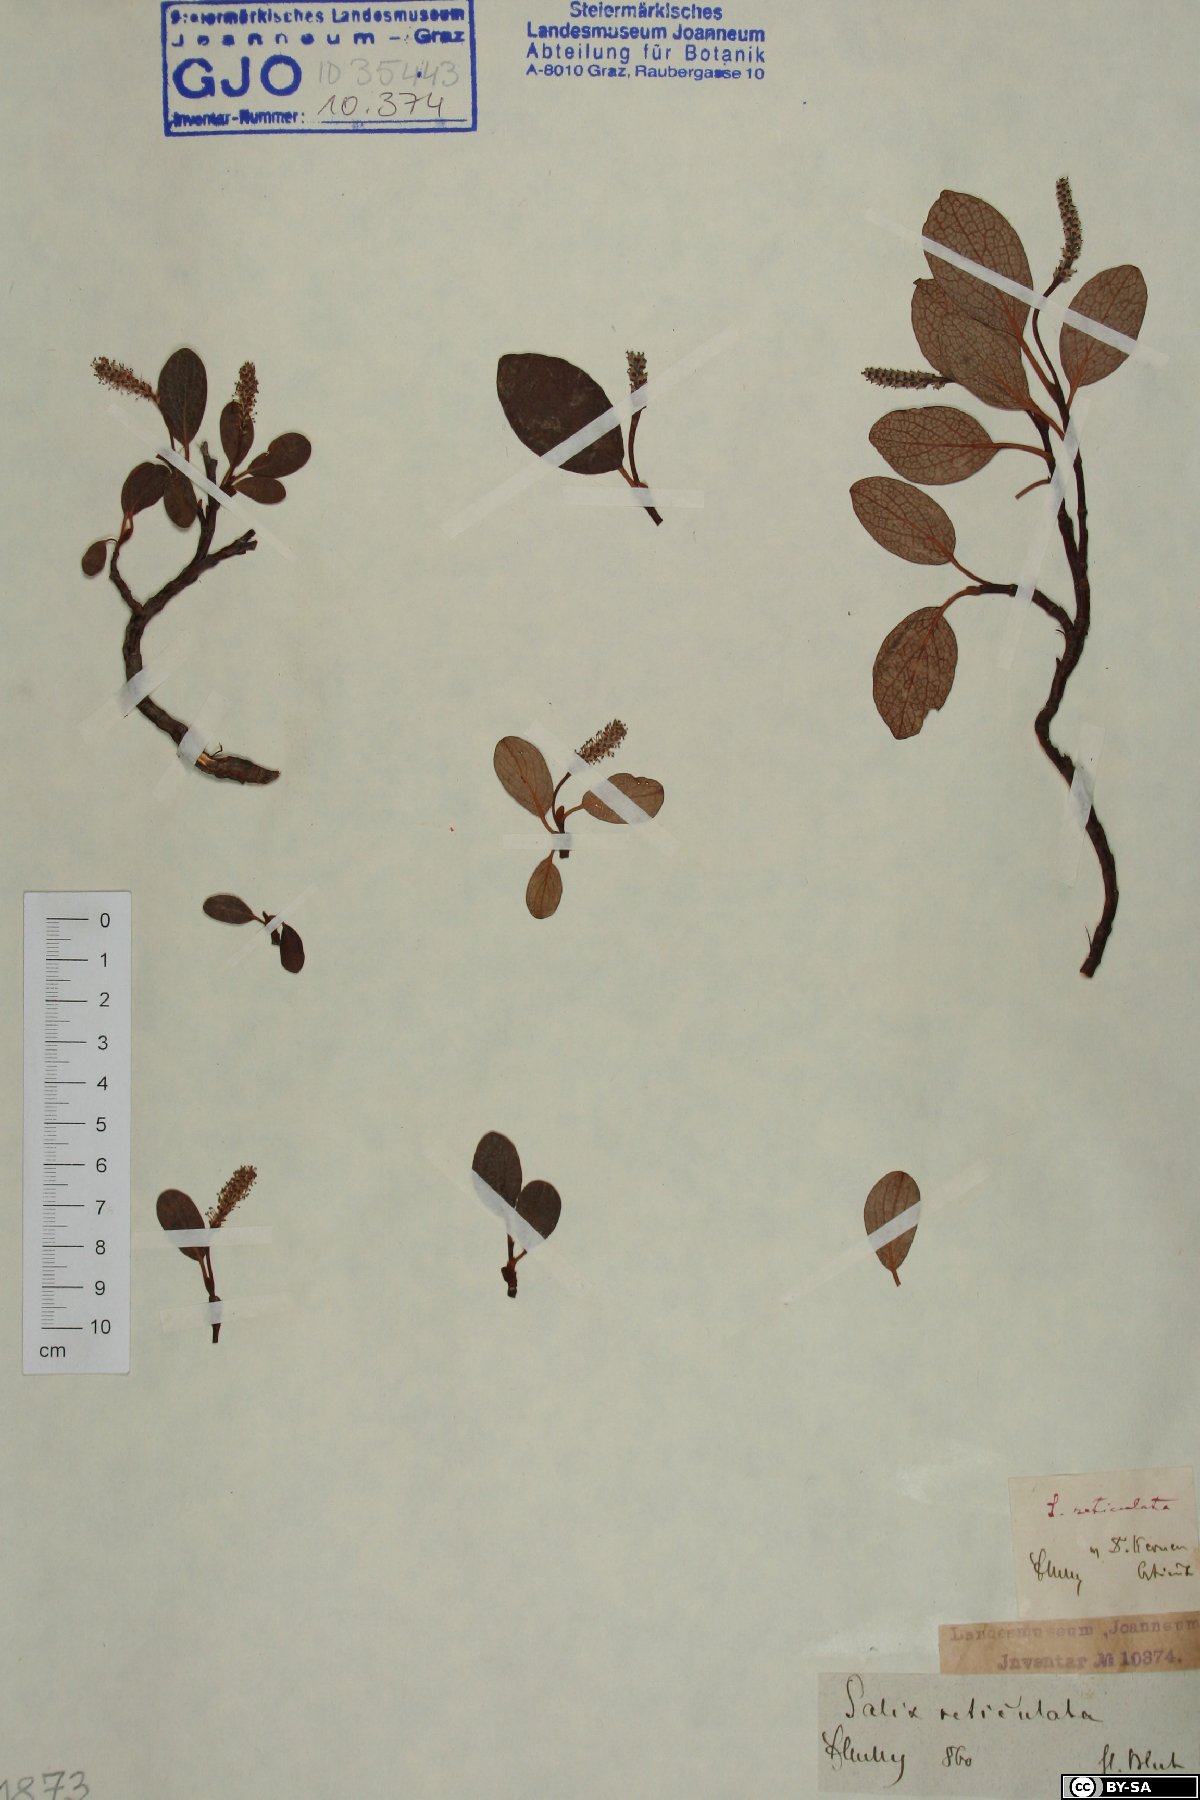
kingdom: Plantae
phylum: Tracheophyta
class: Magnoliopsida
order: Malpighiales
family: Salicaceae
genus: Salix
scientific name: Salix reticulata
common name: Net-leaved willow
